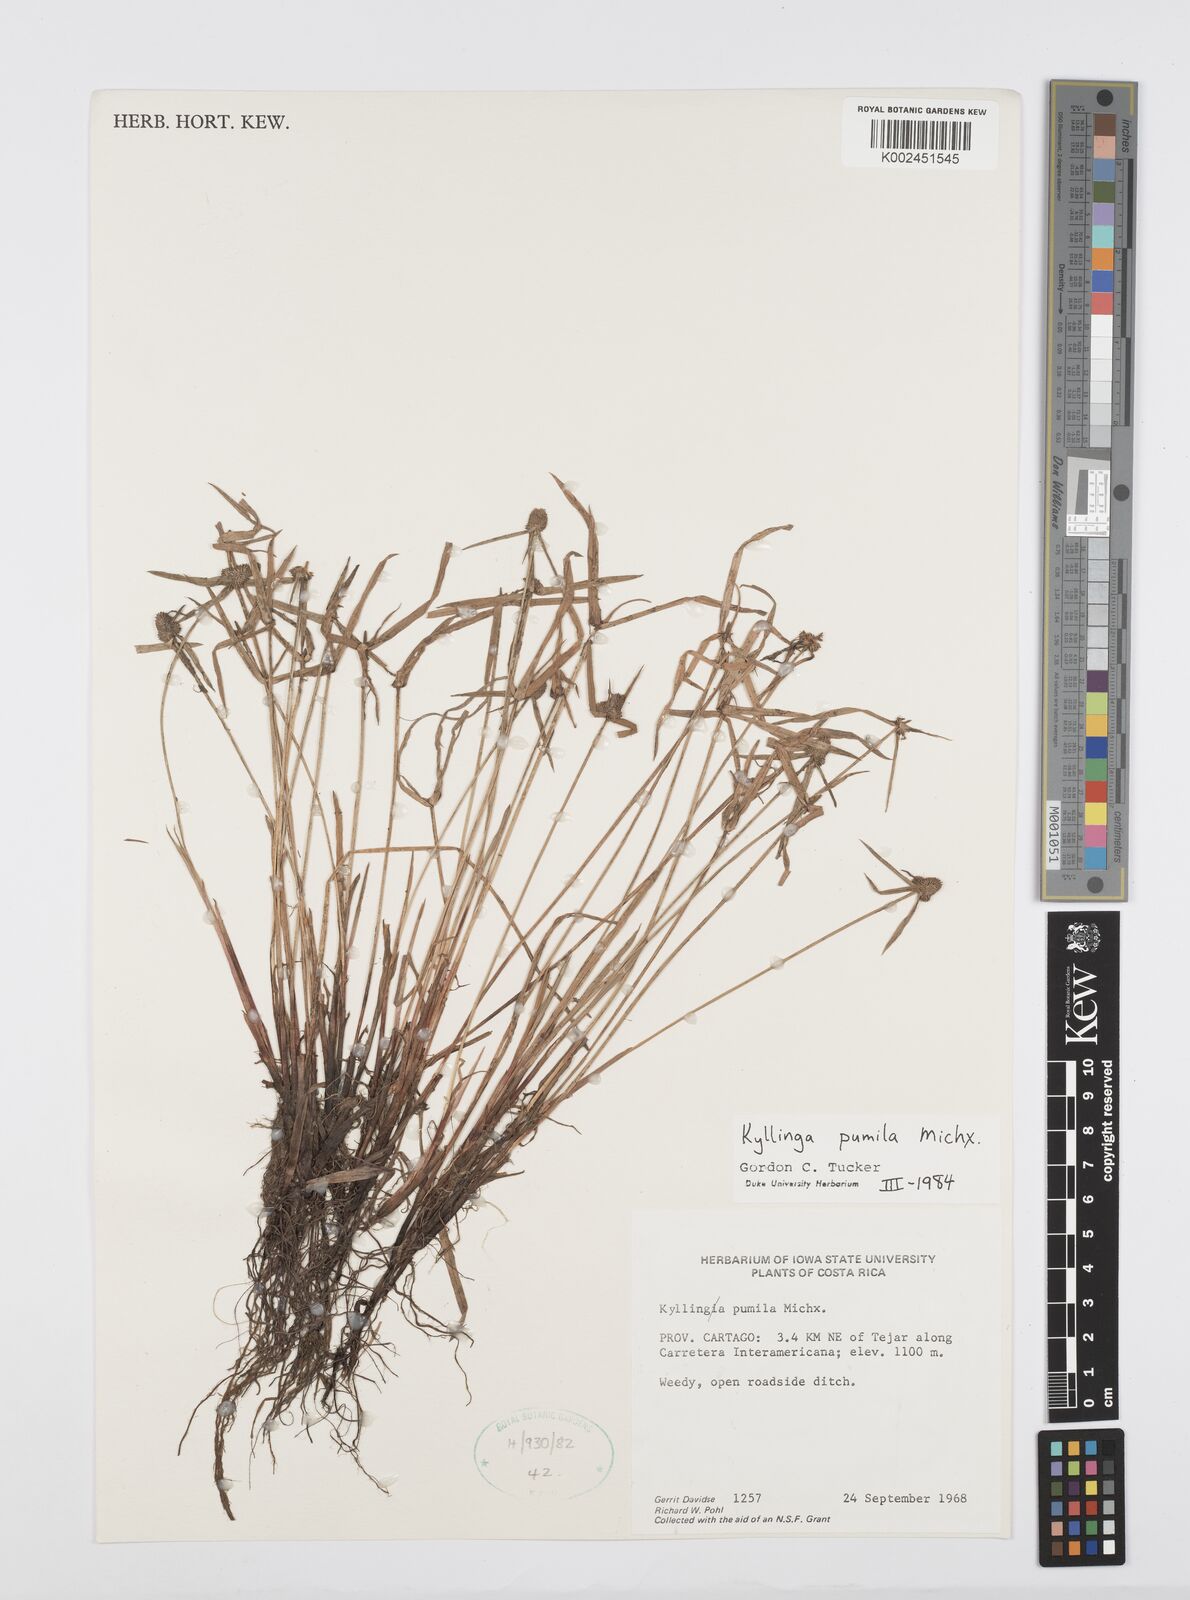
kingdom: Plantae
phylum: Tracheophyta
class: Liliopsida
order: Poales
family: Cyperaceae
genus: Cyperus
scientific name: Cyperus
